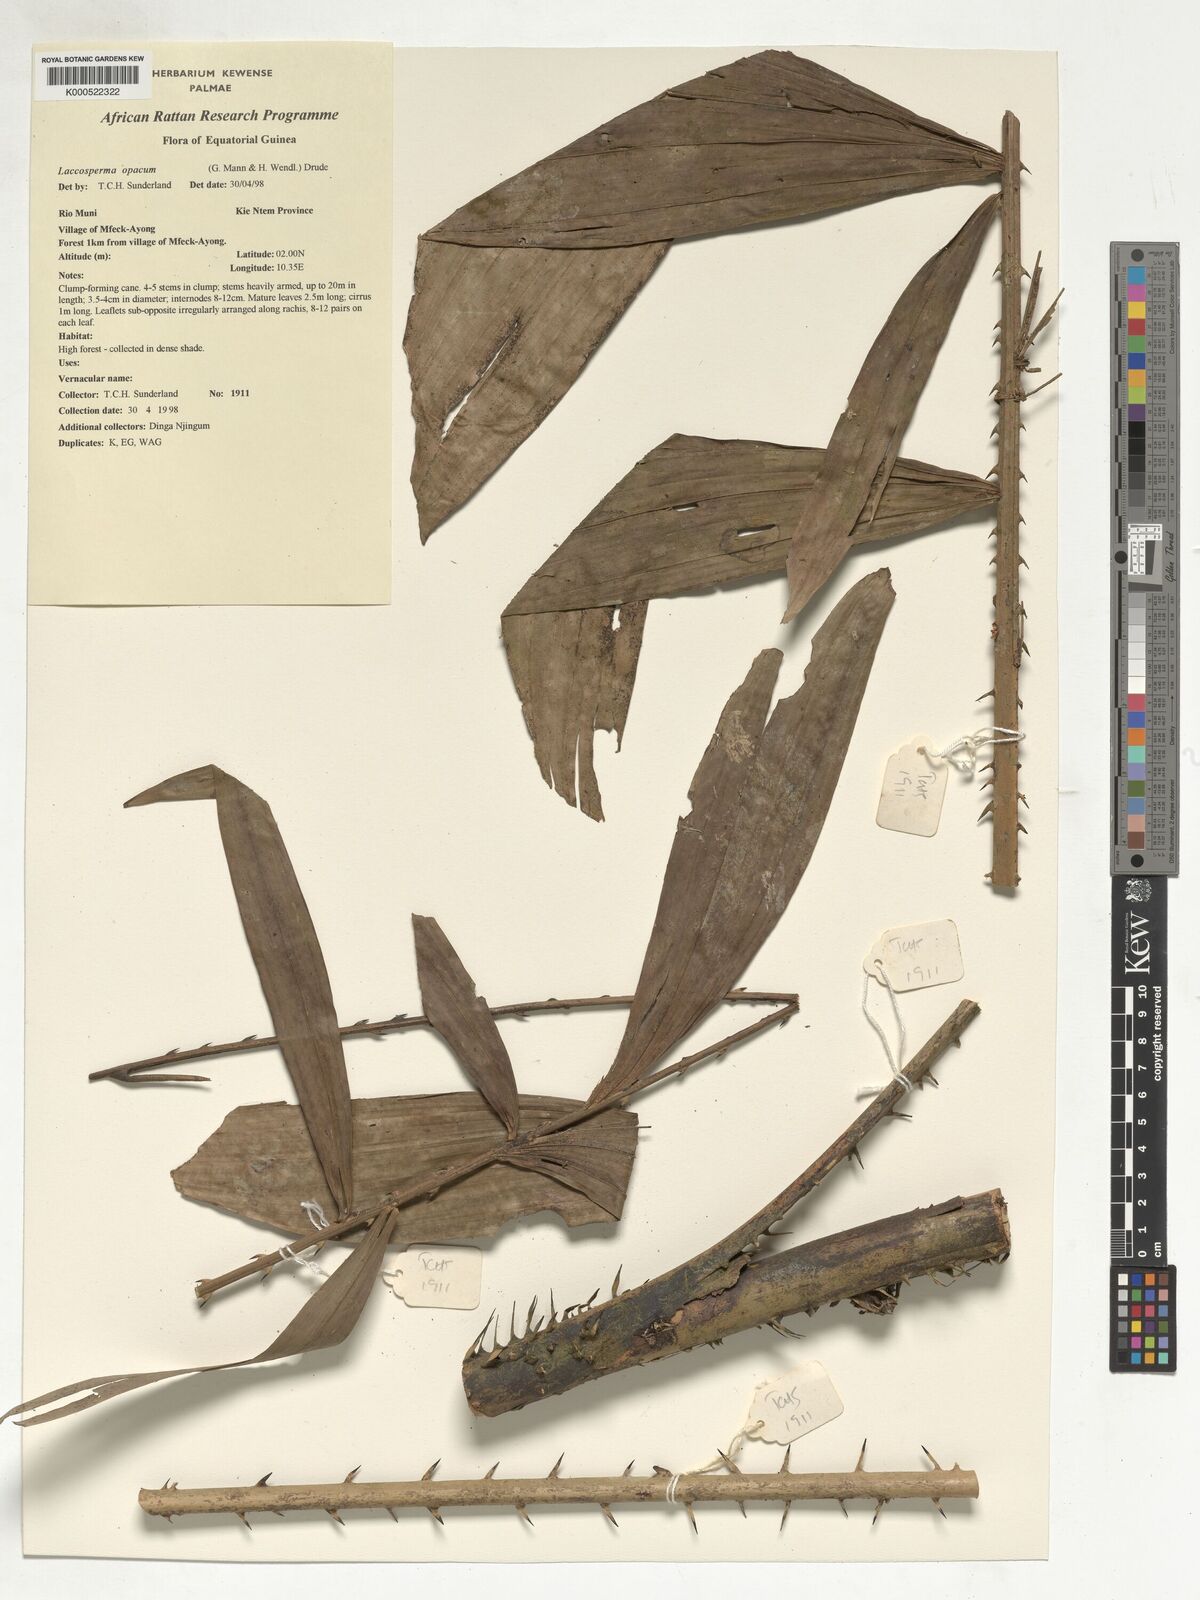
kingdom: Plantae
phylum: Tracheophyta
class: Liliopsida
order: Arecales
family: Arecaceae
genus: Laccosperma
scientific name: Laccosperma laeve
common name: Rattan
